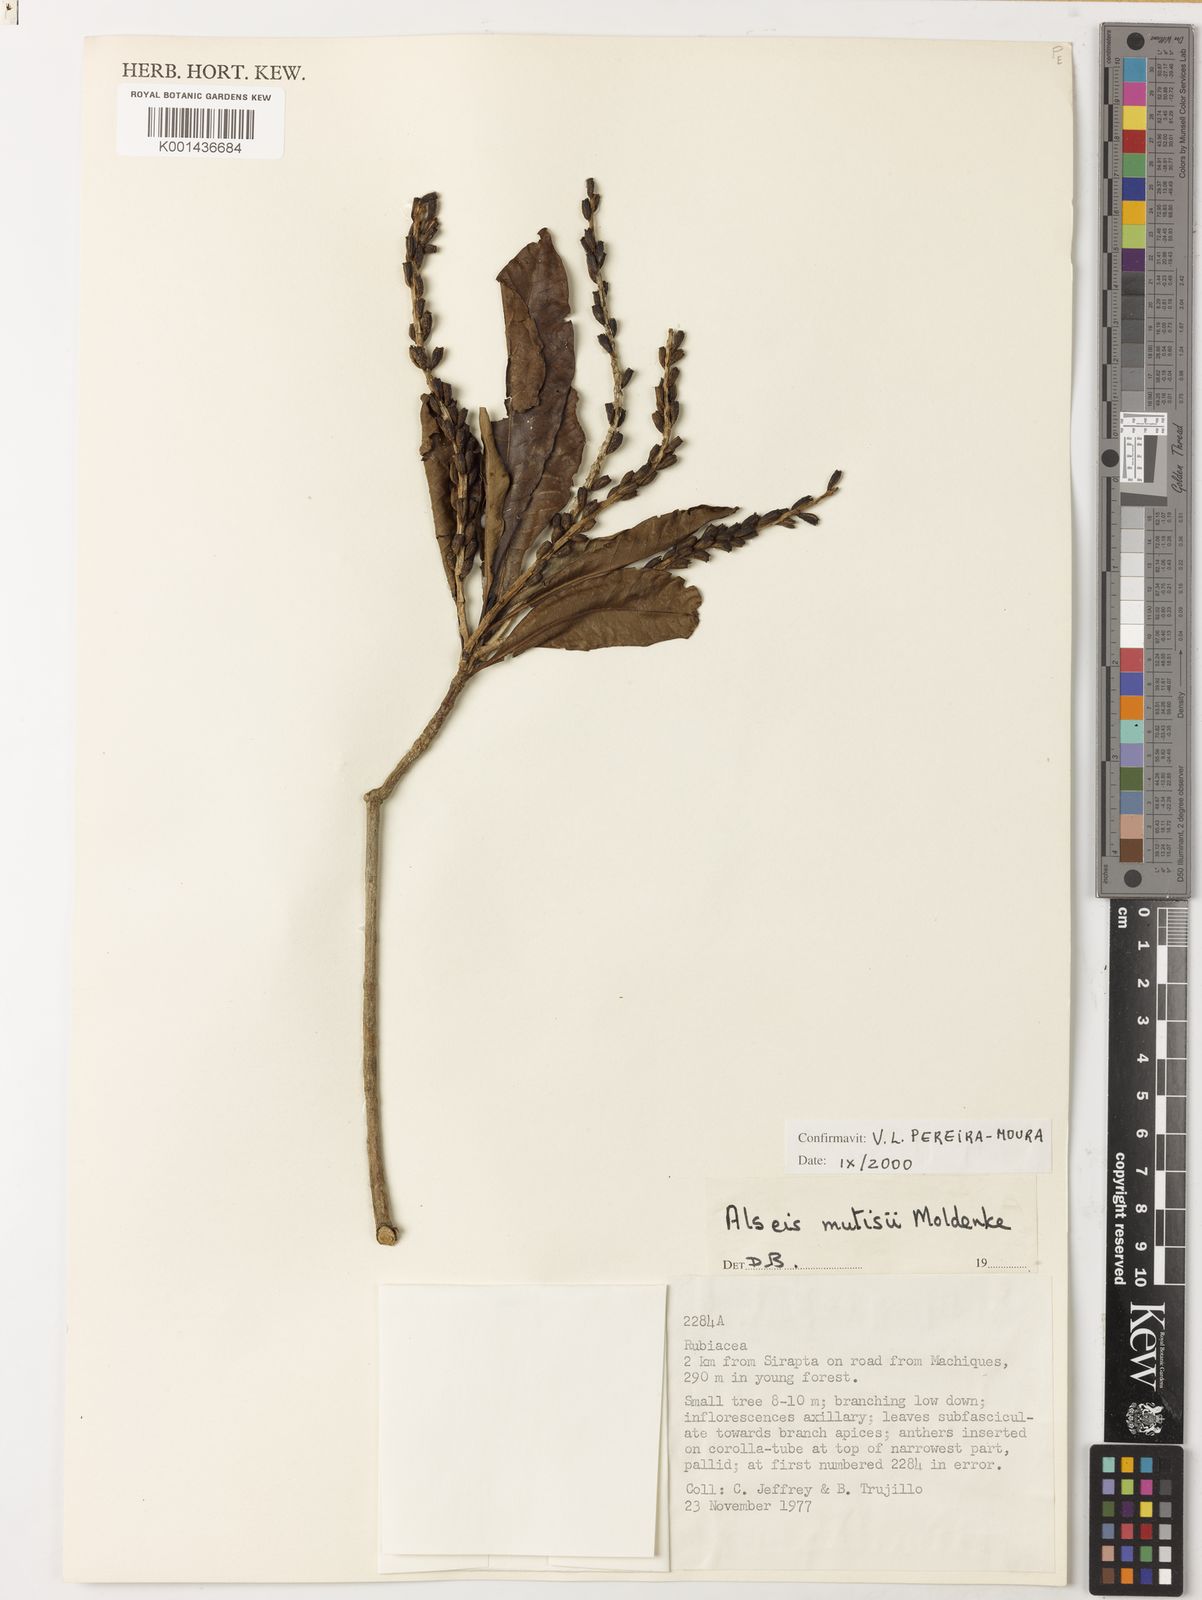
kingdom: Plantae
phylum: Tracheophyta
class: Magnoliopsida
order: Gentianales
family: Rubiaceae
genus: Alseis
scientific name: Alseis mutisii
